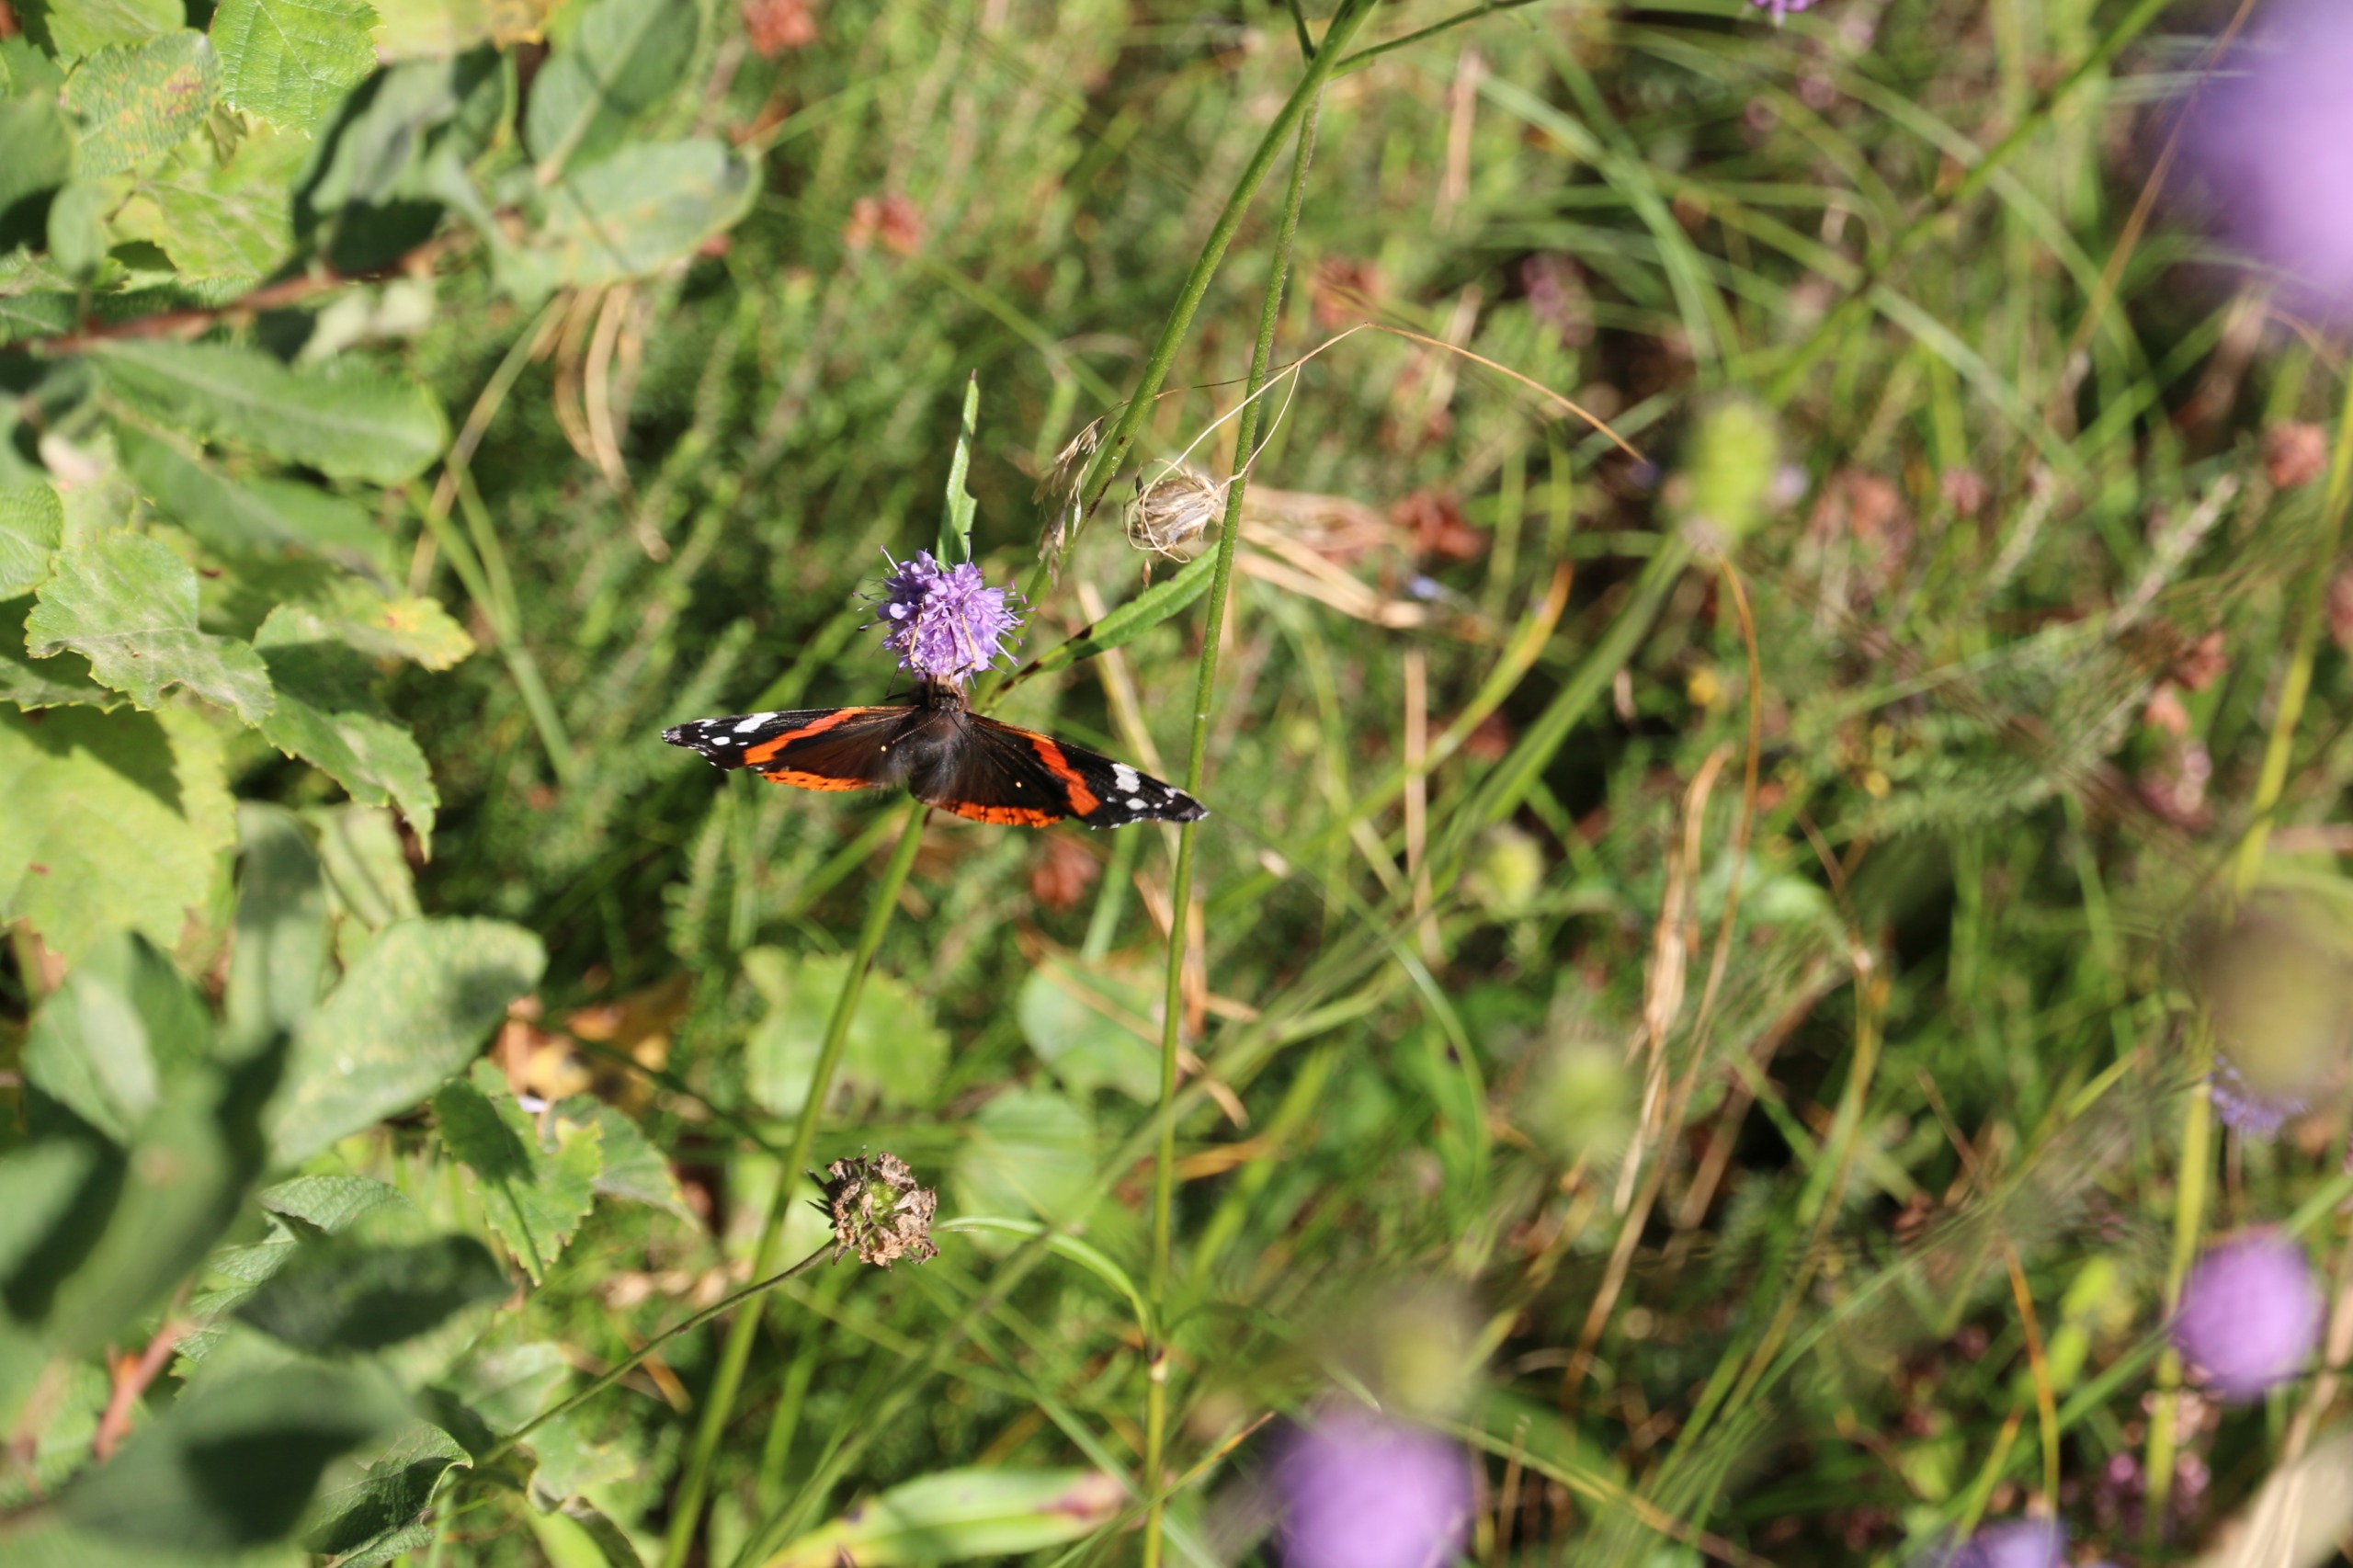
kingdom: Animalia
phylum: Arthropoda
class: Insecta
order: Lepidoptera
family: Nymphalidae
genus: Vanessa
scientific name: Vanessa atalanta
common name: Admiral
